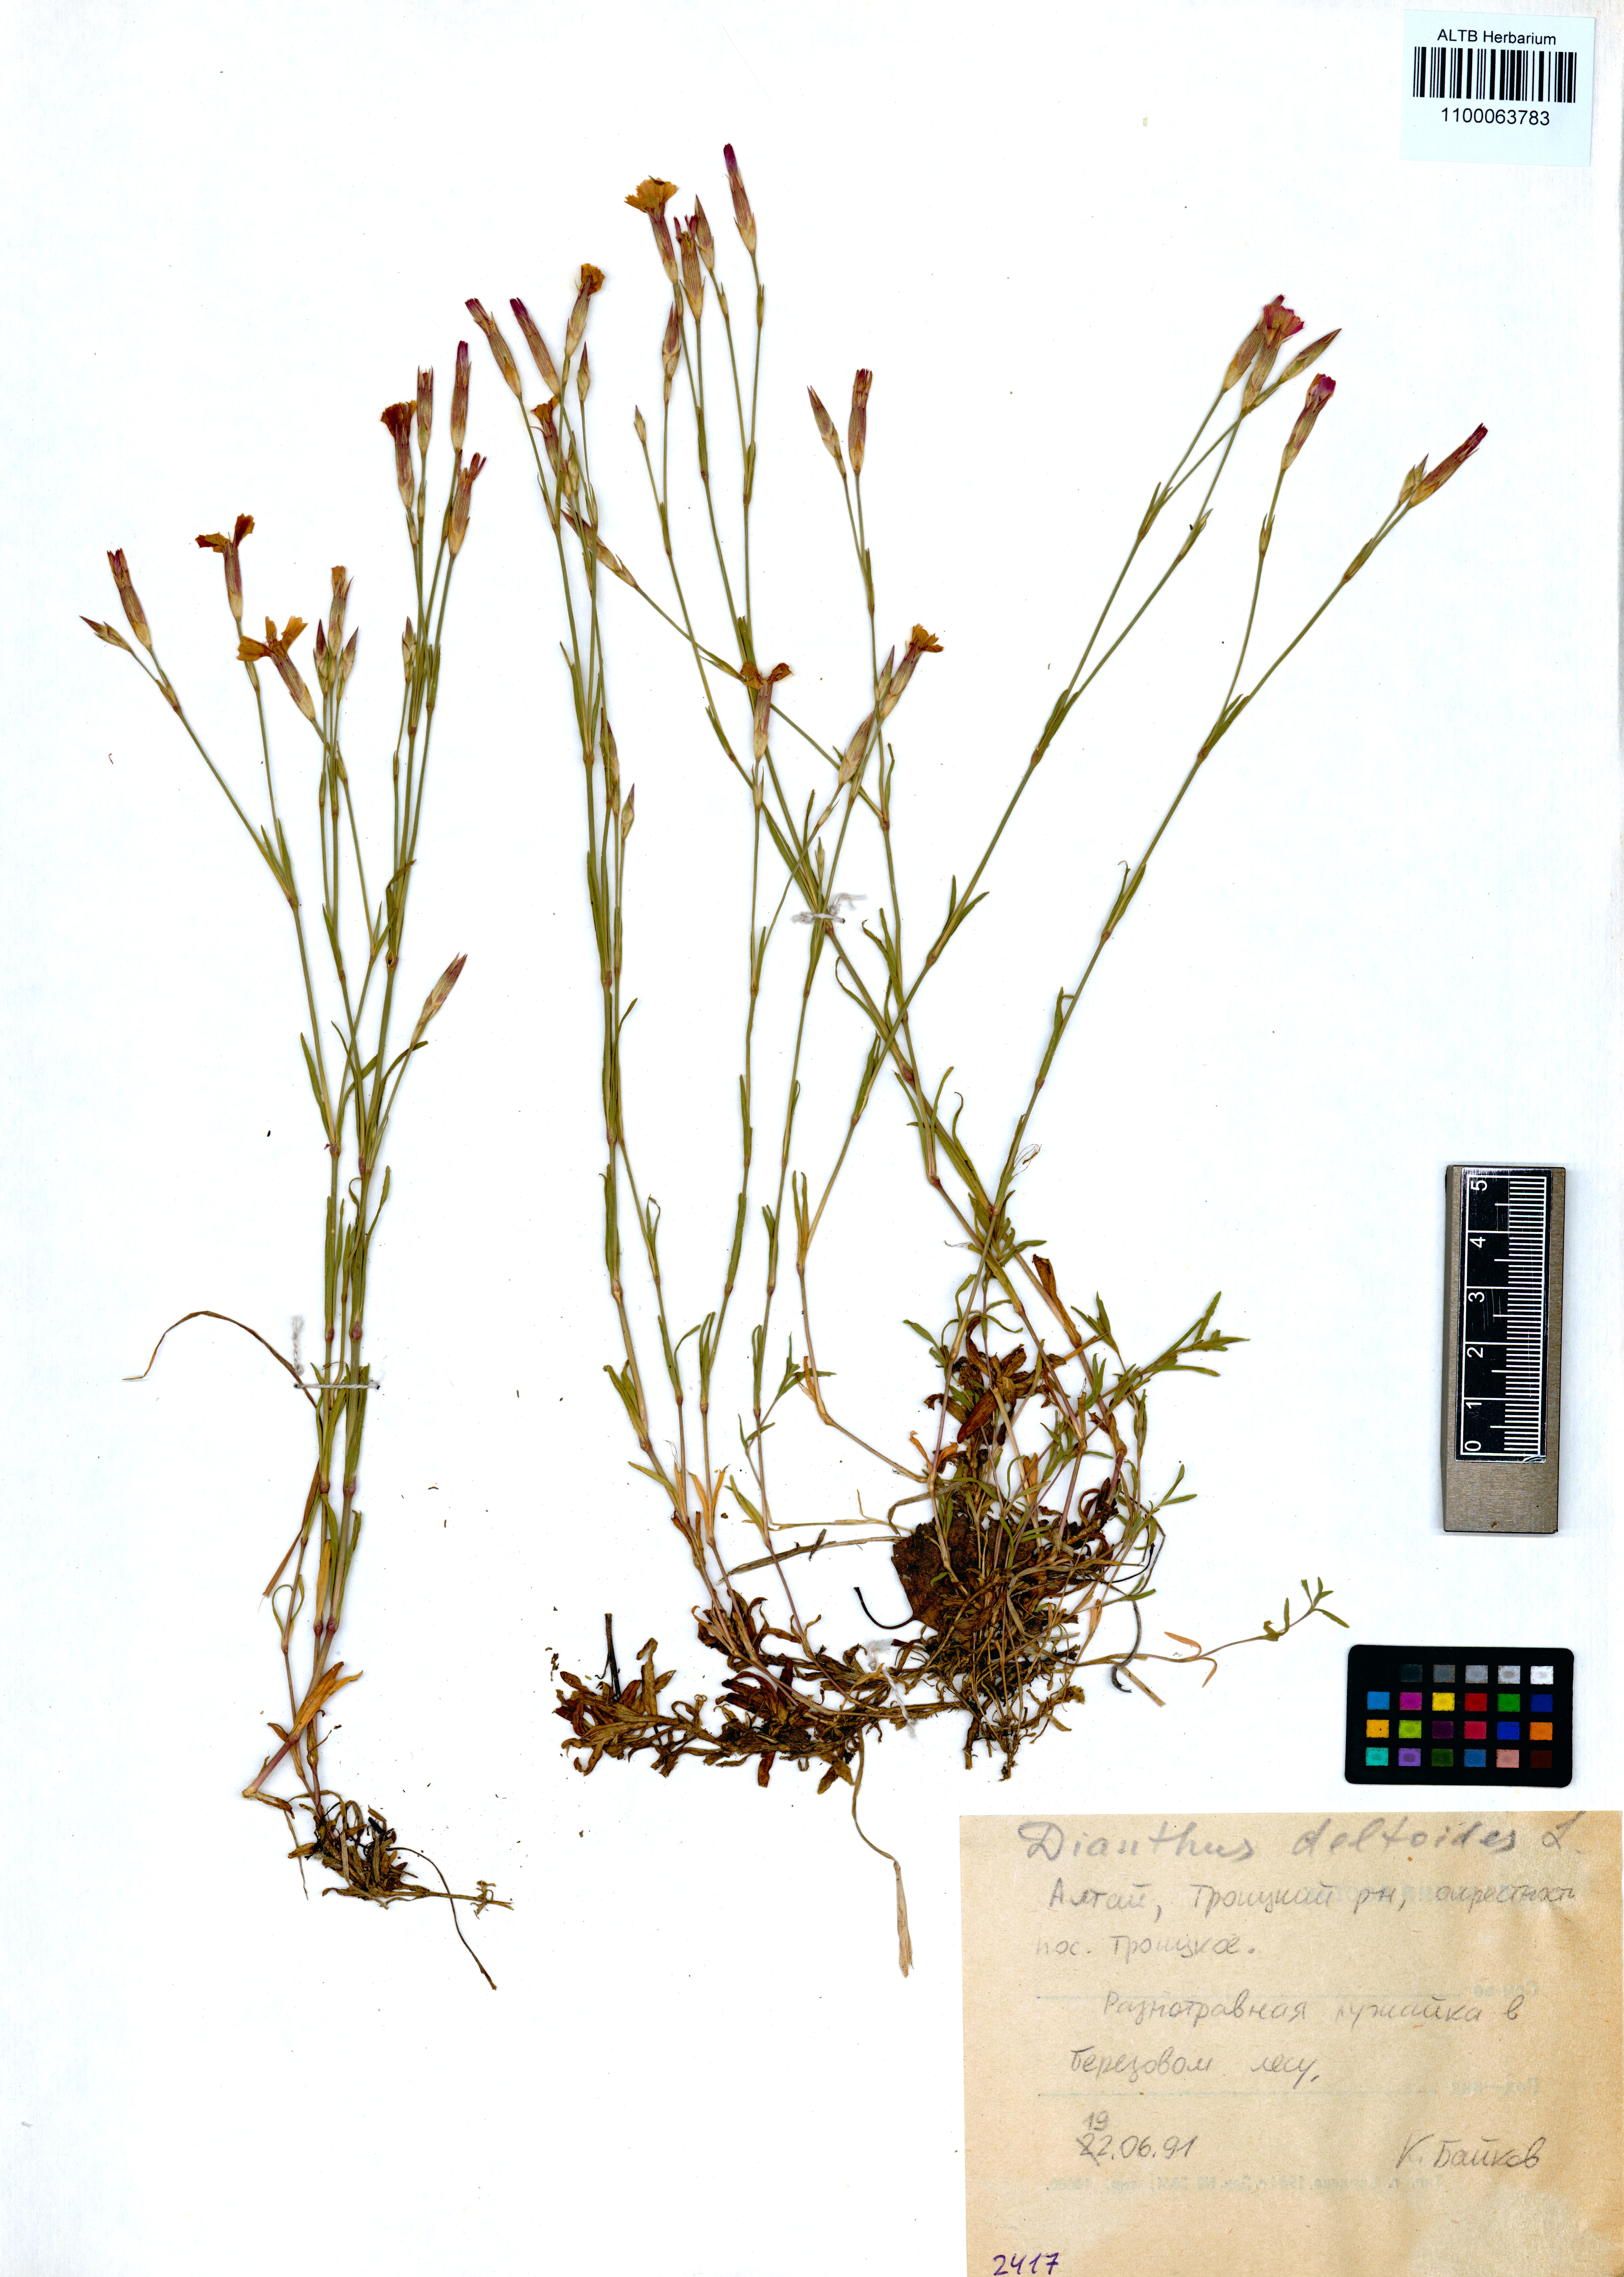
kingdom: Plantae
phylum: Tracheophyta
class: Magnoliopsida
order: Caryophyllales
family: Caryophyllaceae
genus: Dianthus
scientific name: Dianthus deltoides
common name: Maiden pink
